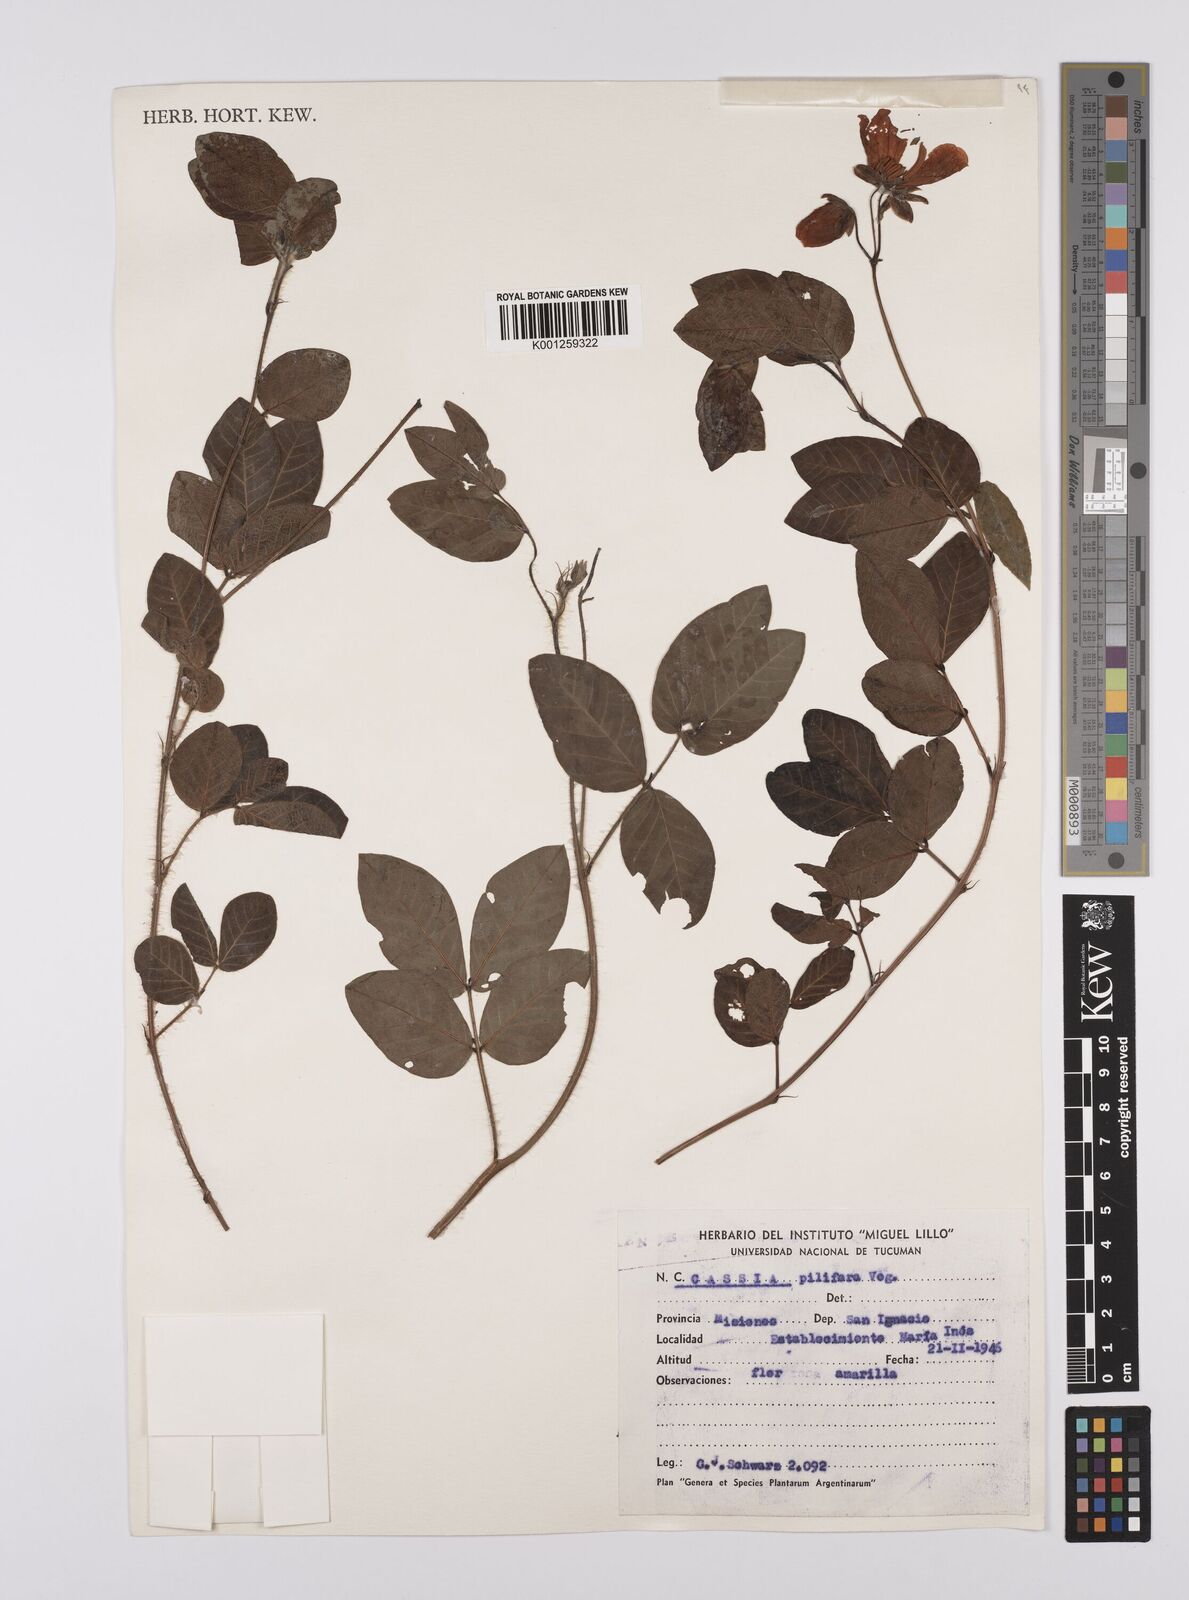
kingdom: Plantae
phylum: Tracheophyta
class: Magnoliopsida
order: Fabales
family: Fabaceae
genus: Senna
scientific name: Senna pilifera
